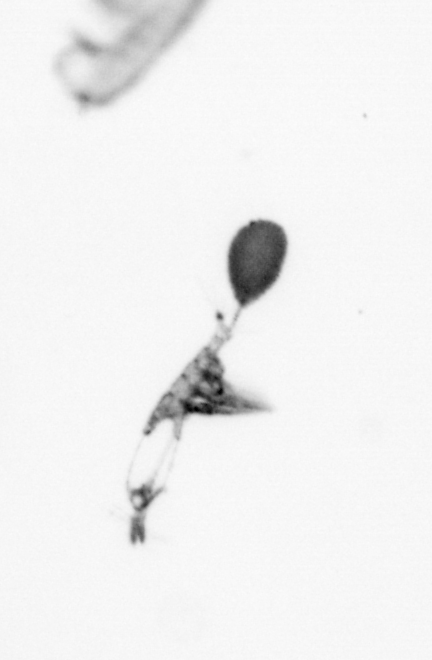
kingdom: Animalia
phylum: Arthropoda
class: Copepoda
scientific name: Copepoda
